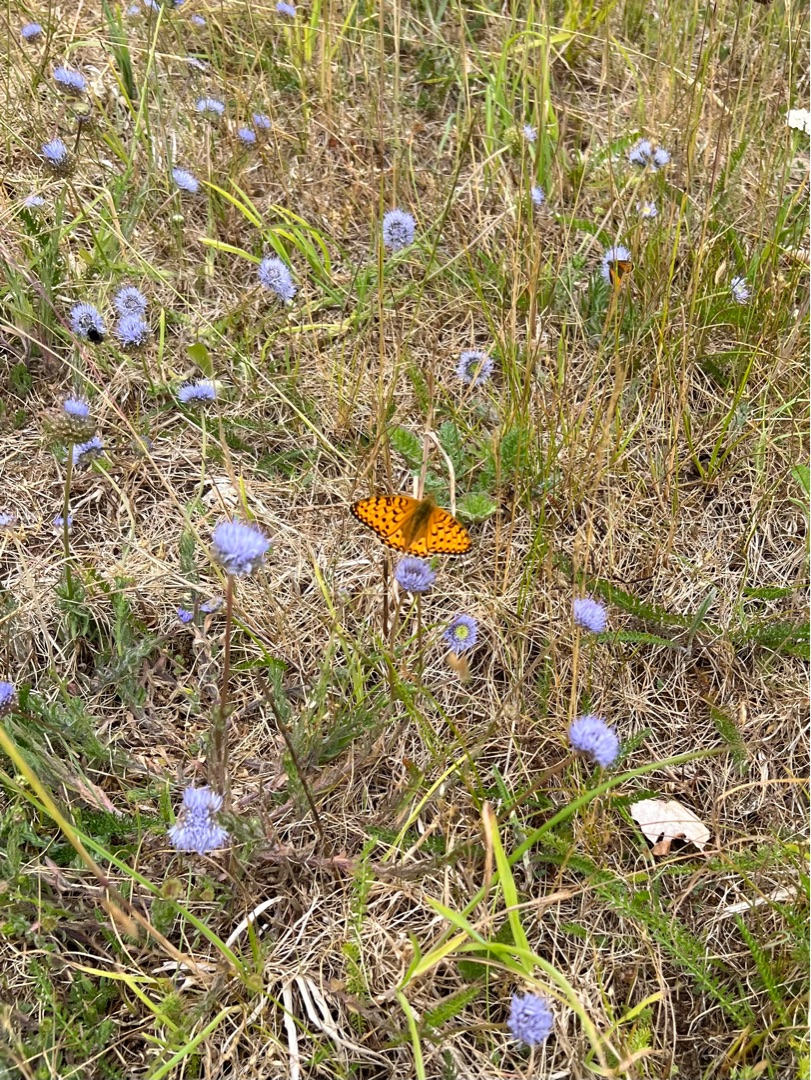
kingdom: Plantae
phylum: Tracheophyta
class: Magnoliopsida
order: Asterales
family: Campanulaceae
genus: Jasione
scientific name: Jasione montana
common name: Blåmunke
